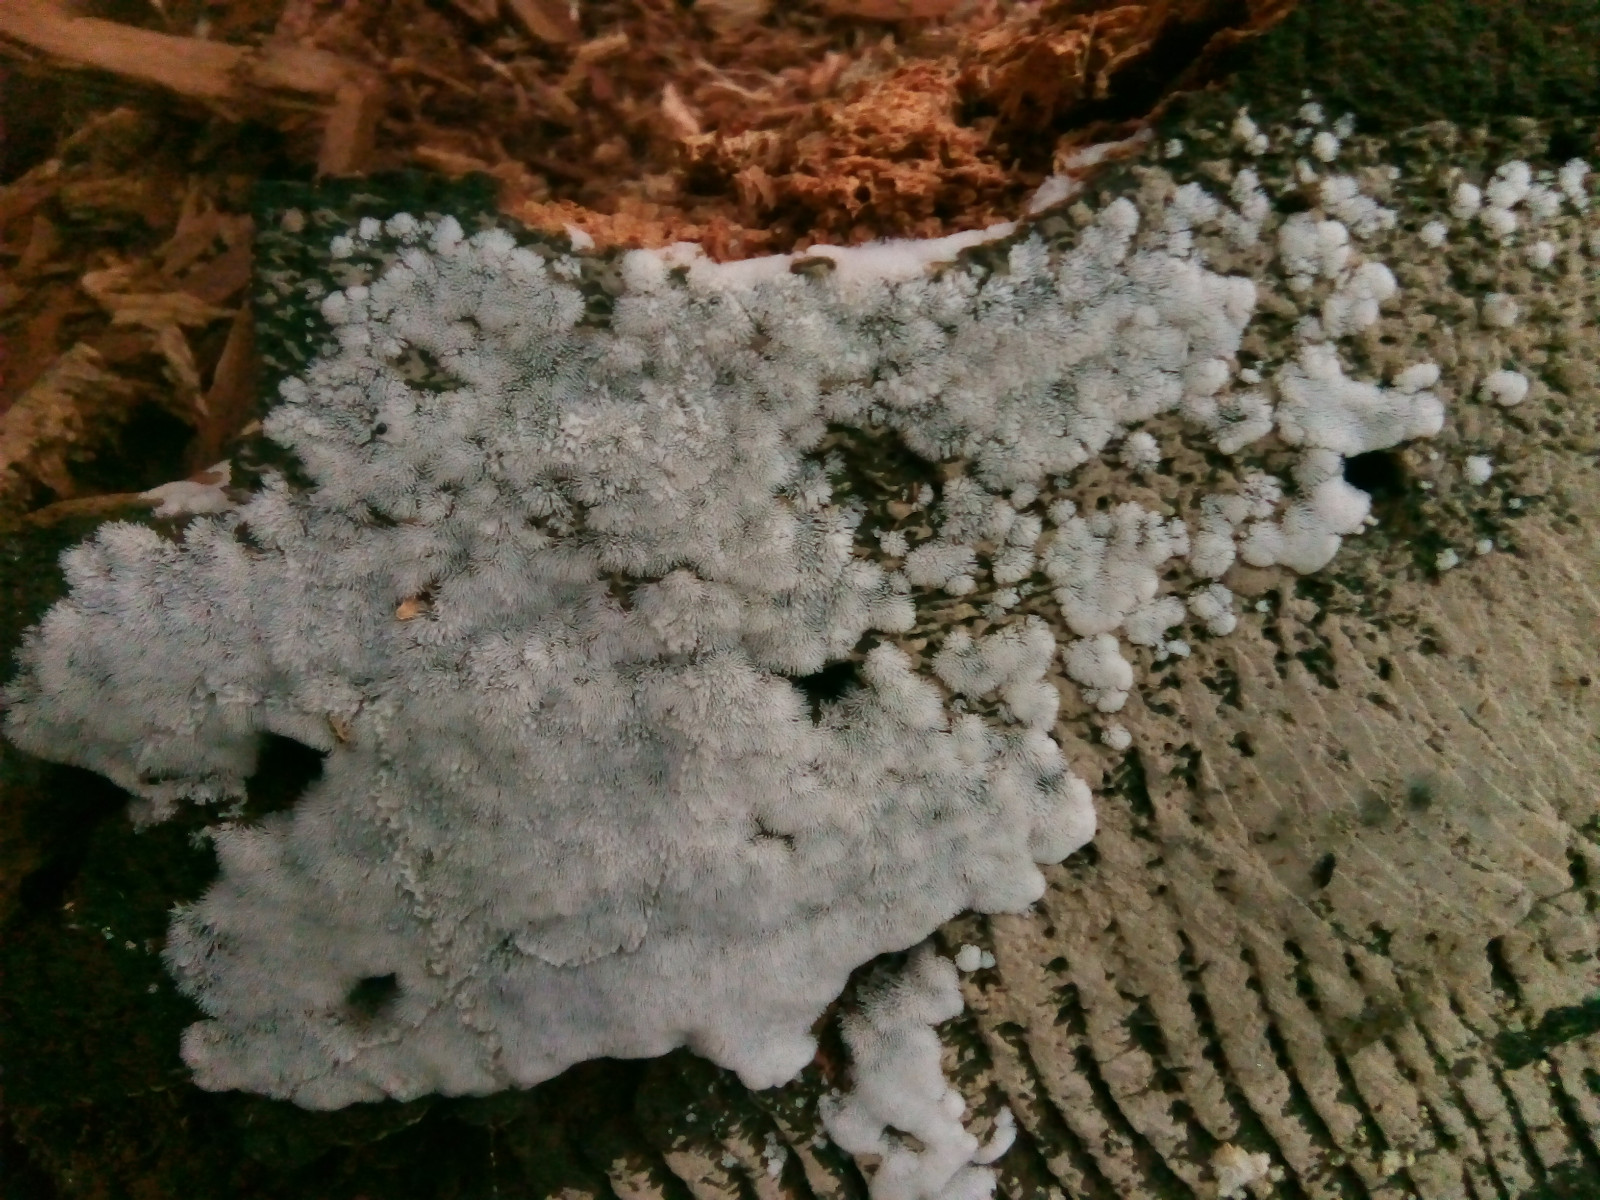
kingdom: Protozoa
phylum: Mycetozoa
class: Protosteliomycetes
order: Ceratiomyxales
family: Ceratiomyxaceae
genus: Ceratiomyxa
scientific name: Ceratiomyxa fruticulosa
